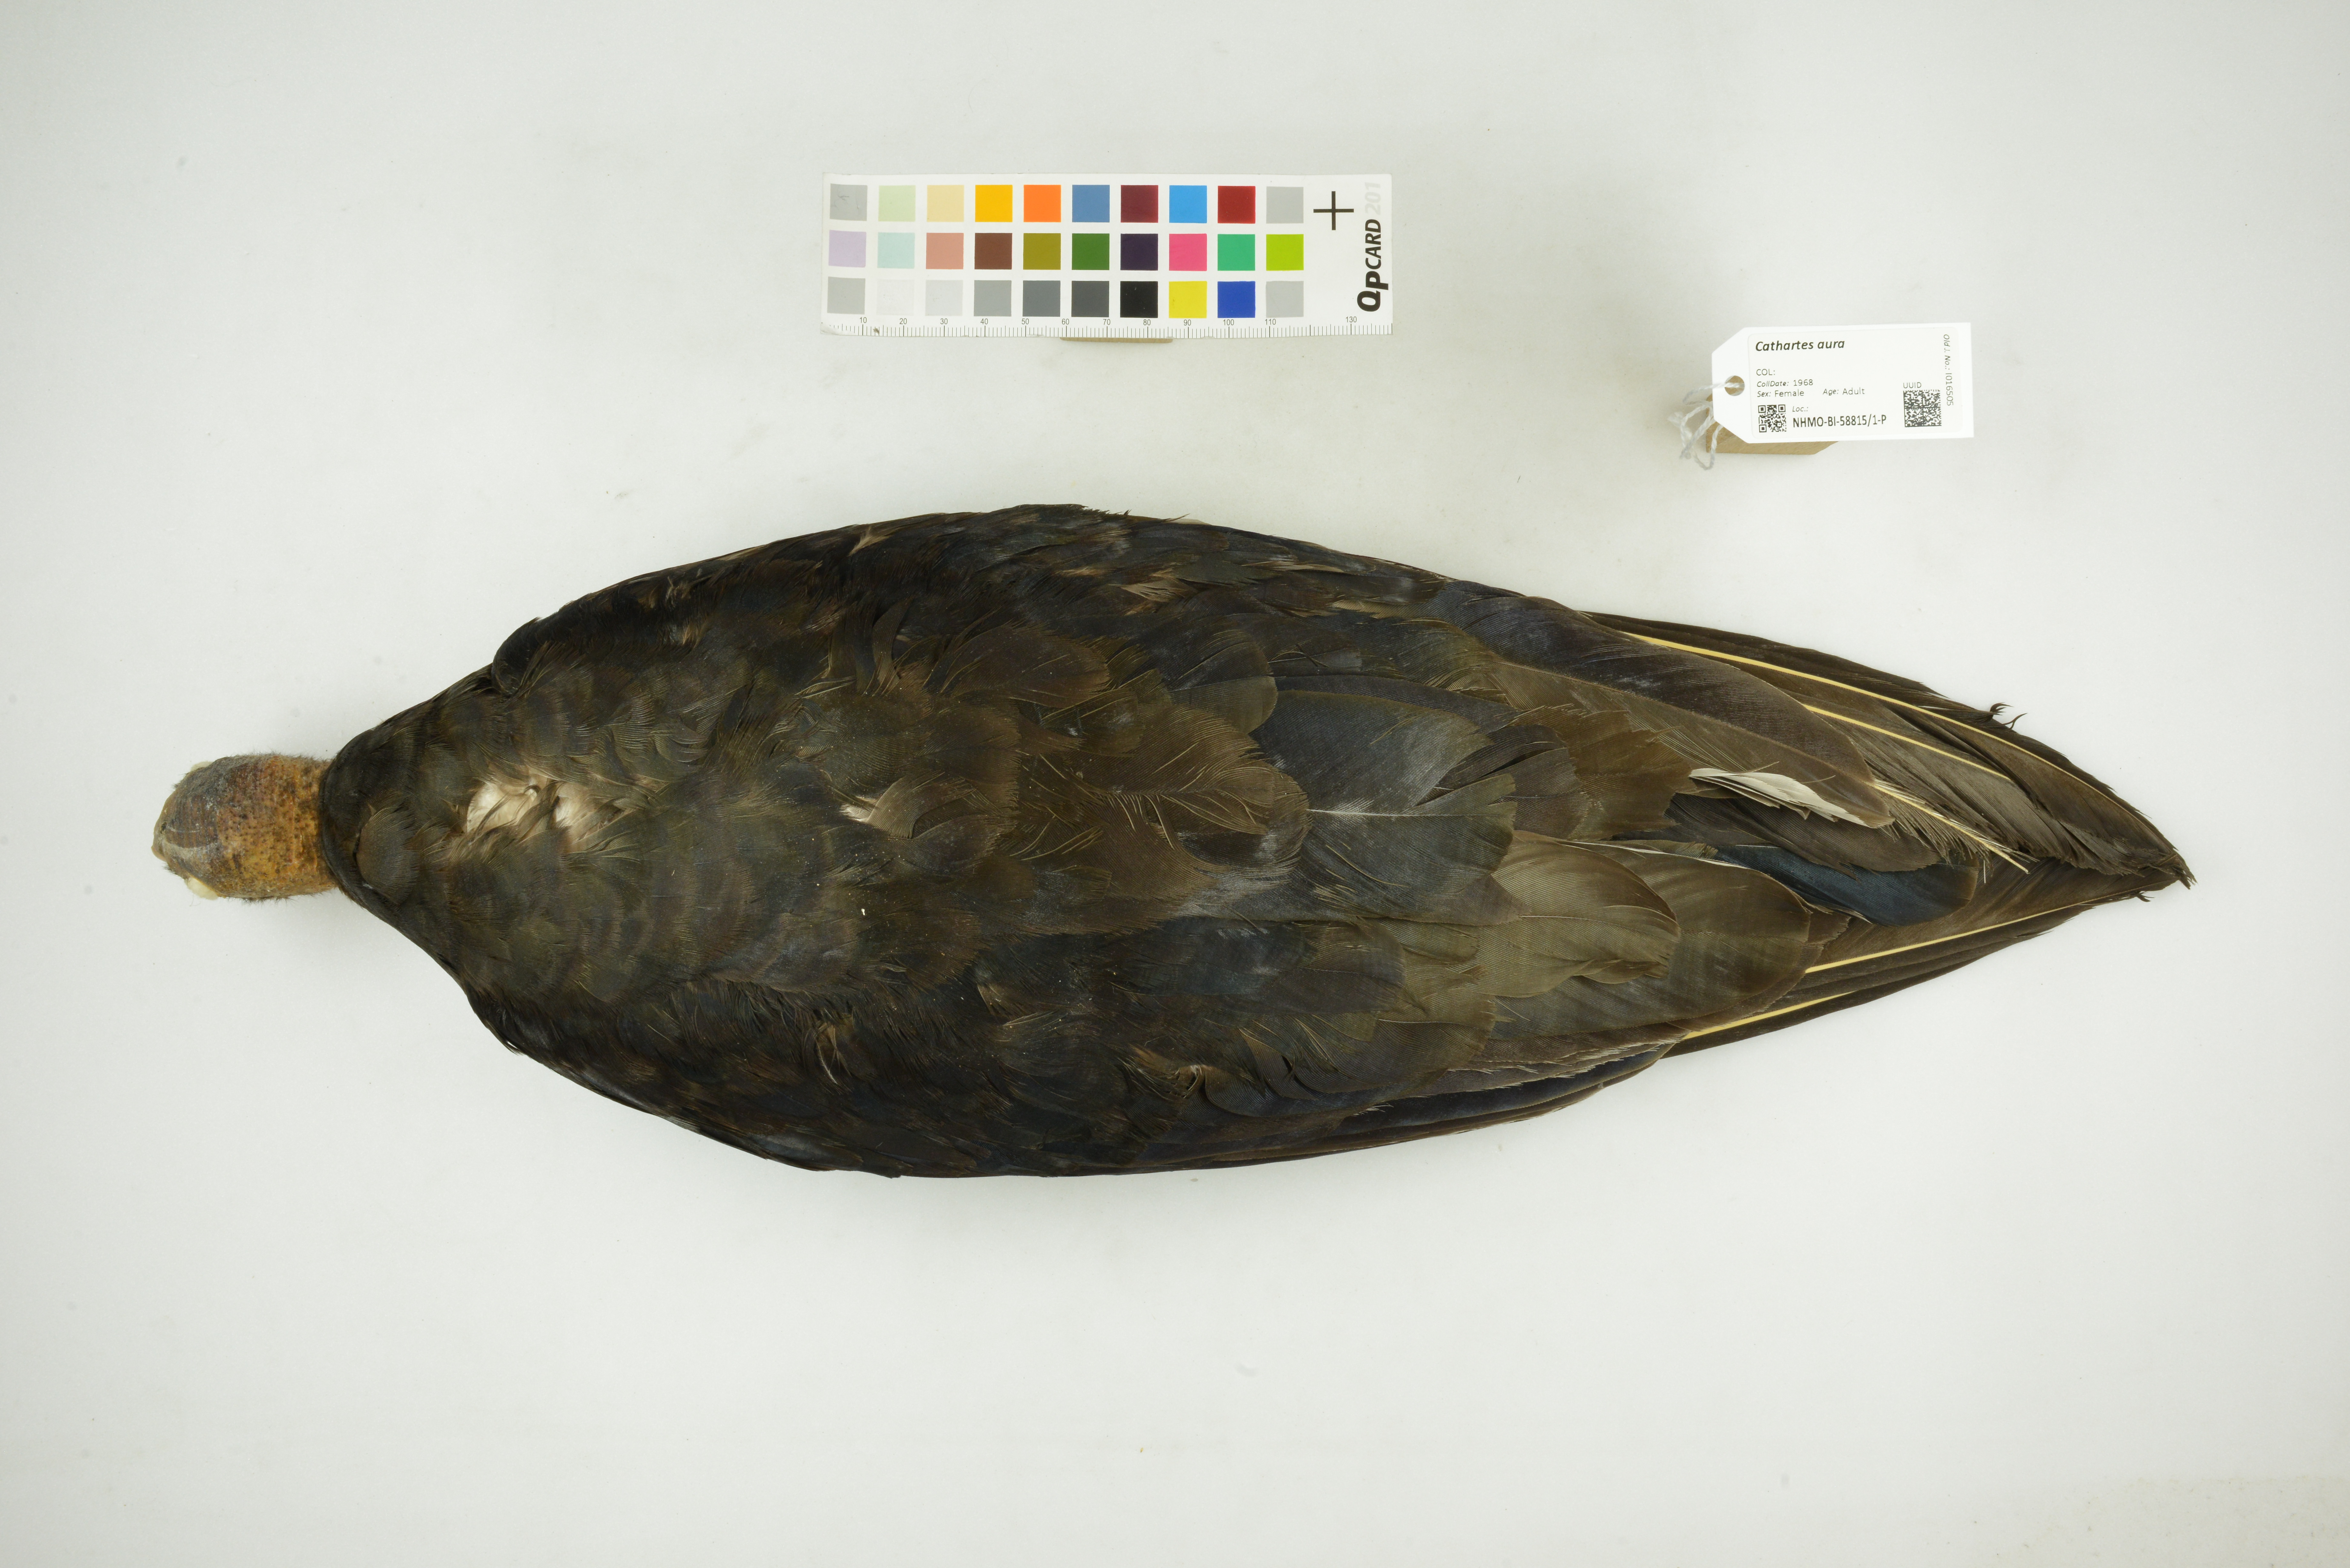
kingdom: Animalia
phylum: Chordata
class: Aves
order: Accipitriformes
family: Cathartidae
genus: Cathartes
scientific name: Cathartes aura
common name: Turkey vulture
